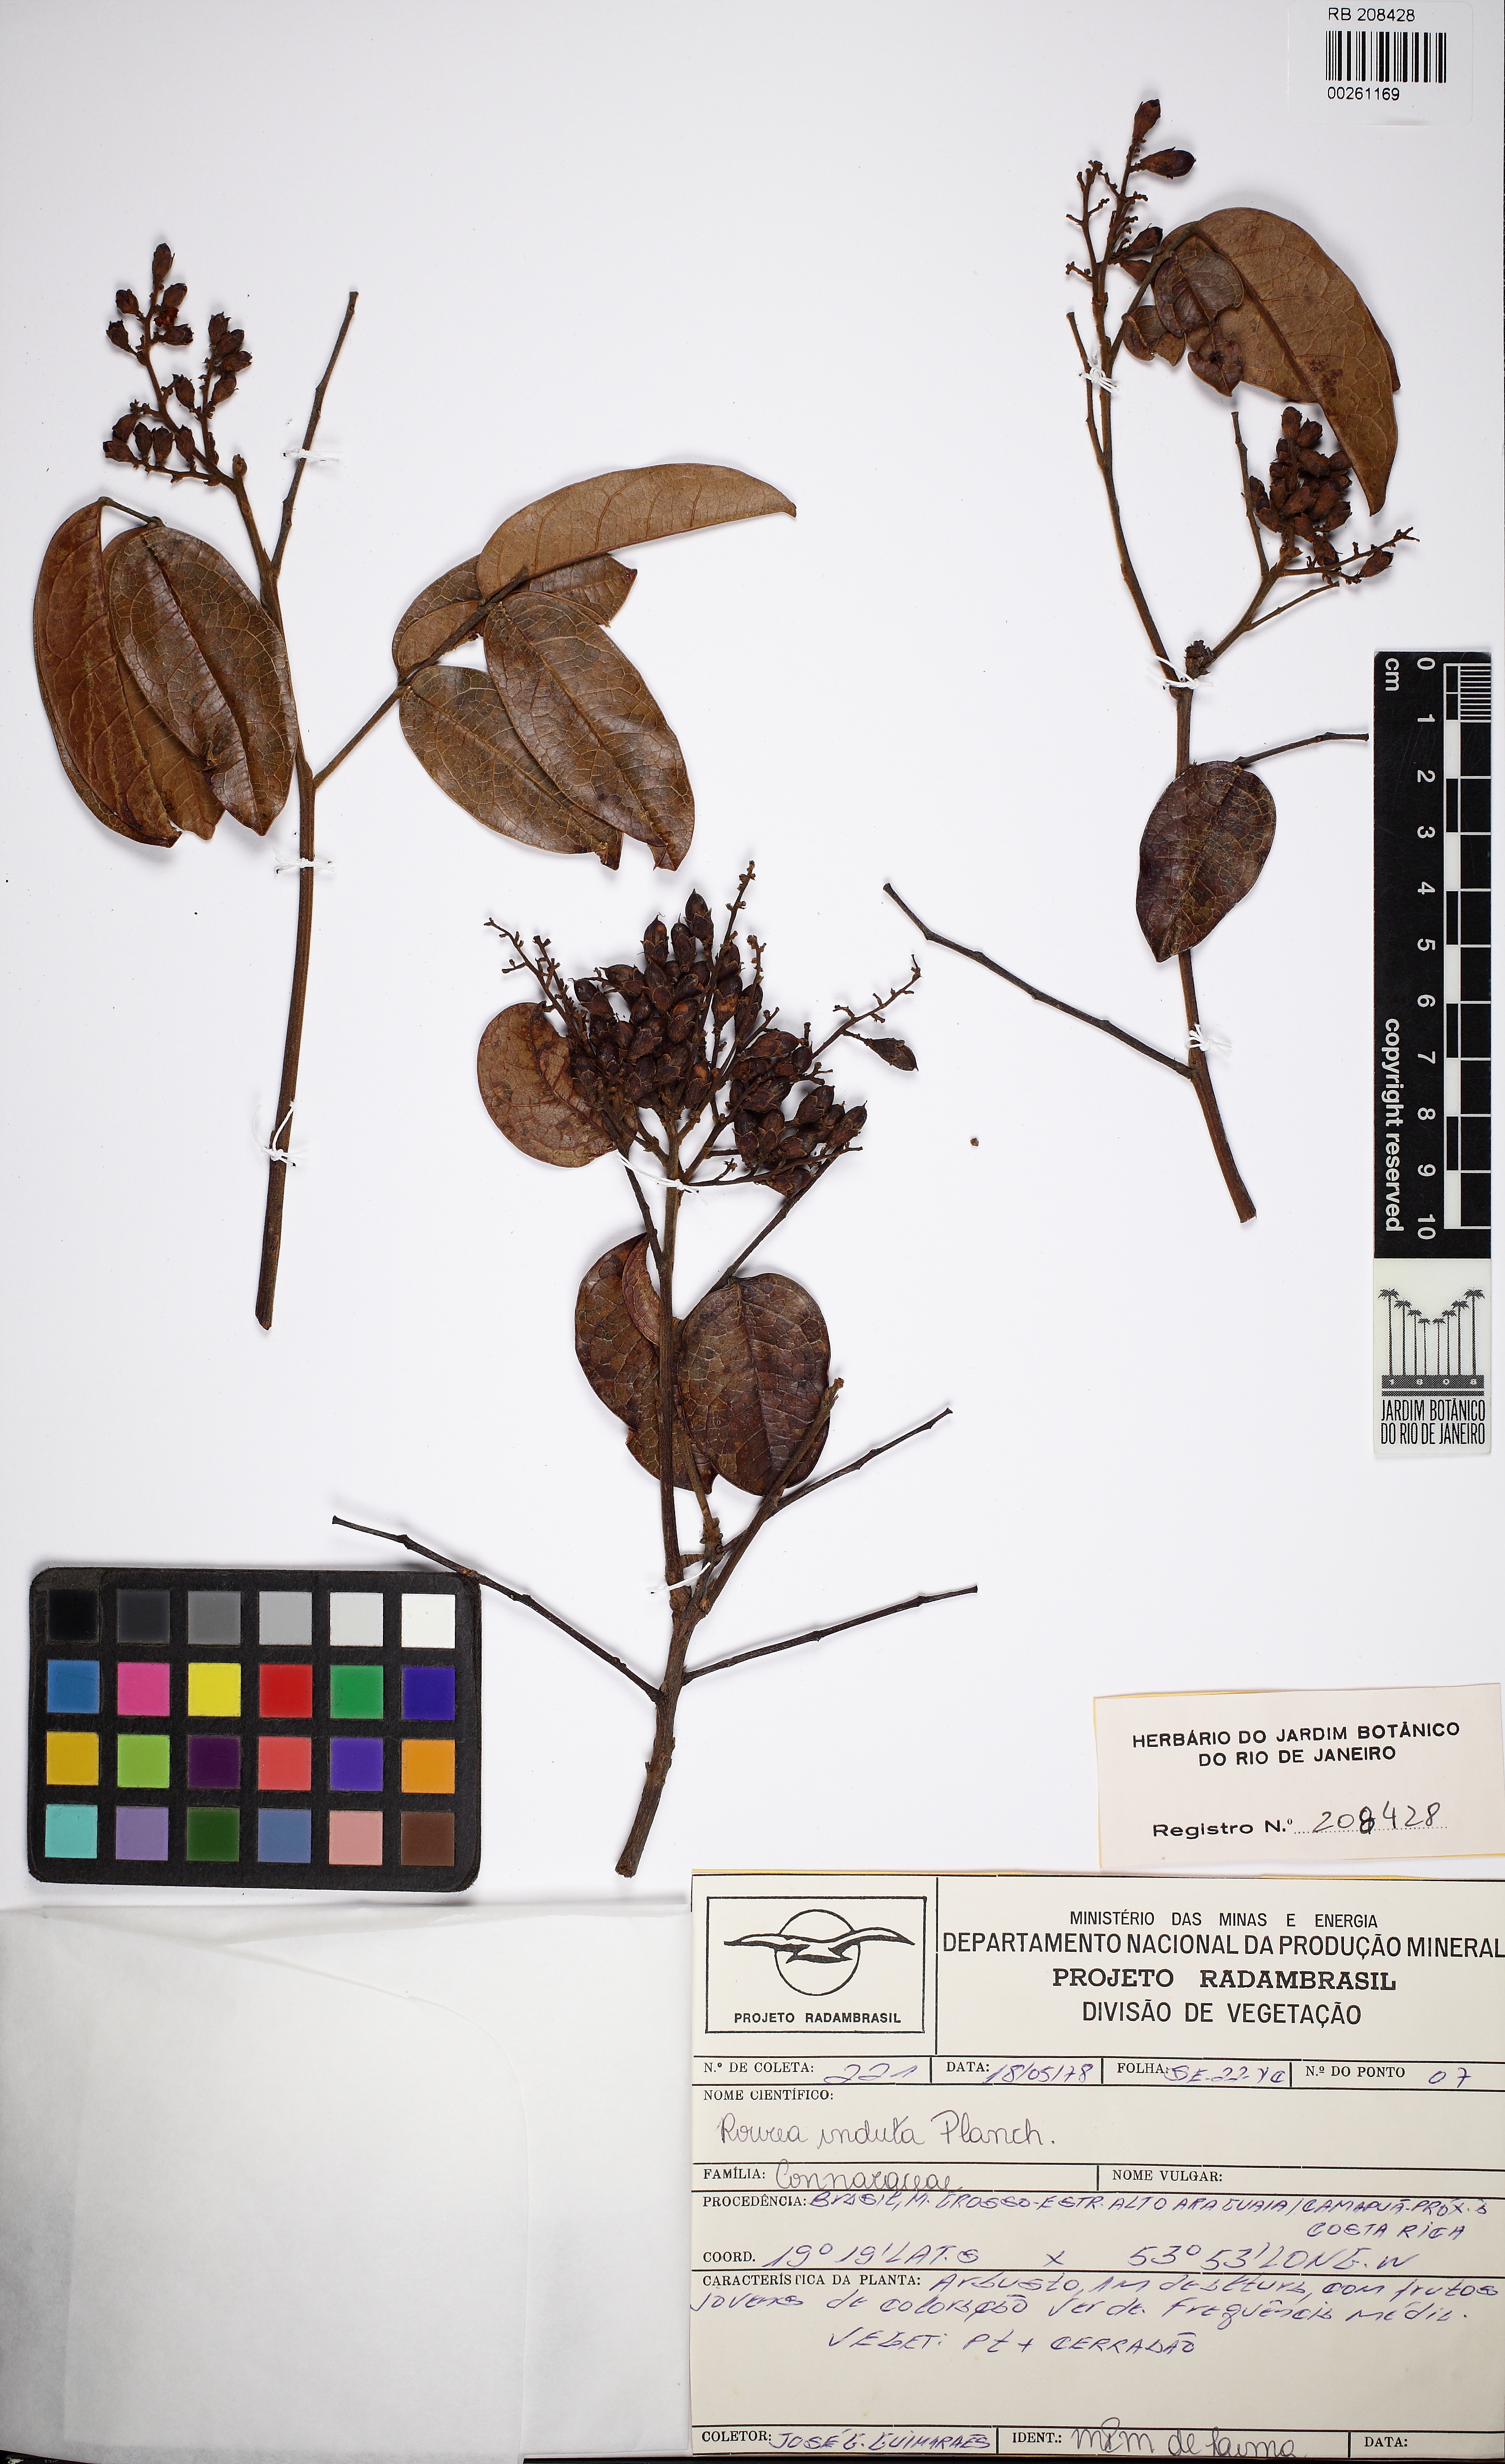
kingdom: Plantae
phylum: Tracheophyta
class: Magnoliopsida
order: Oxalidales
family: Connaraceae
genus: Rourea
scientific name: Rourea induta
